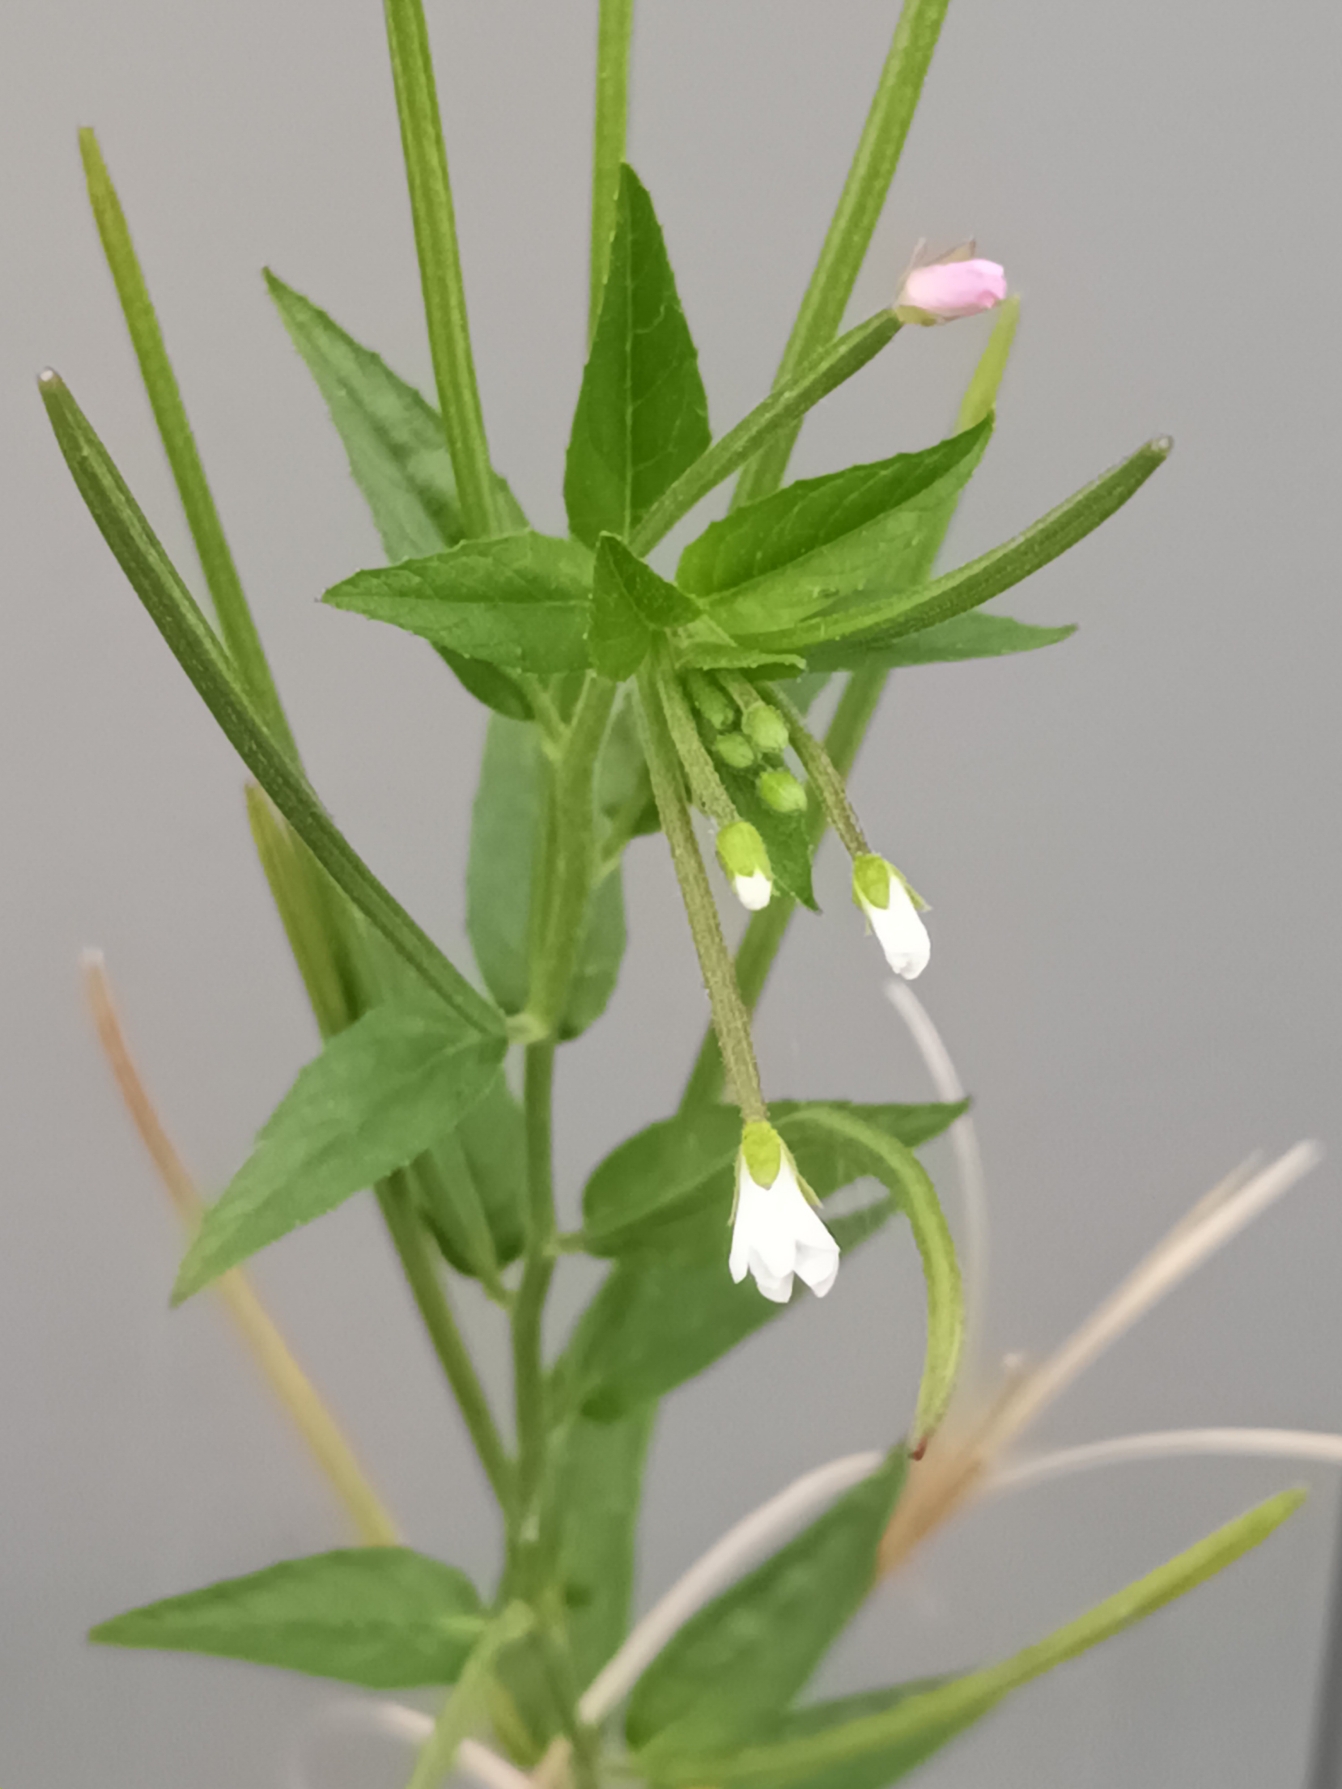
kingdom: Plantae
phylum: Tracheophyta
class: Magnoliopsida
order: Myrtales
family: Onagraceae
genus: Epilobium
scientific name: Epilobium
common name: Dueurtslægten
